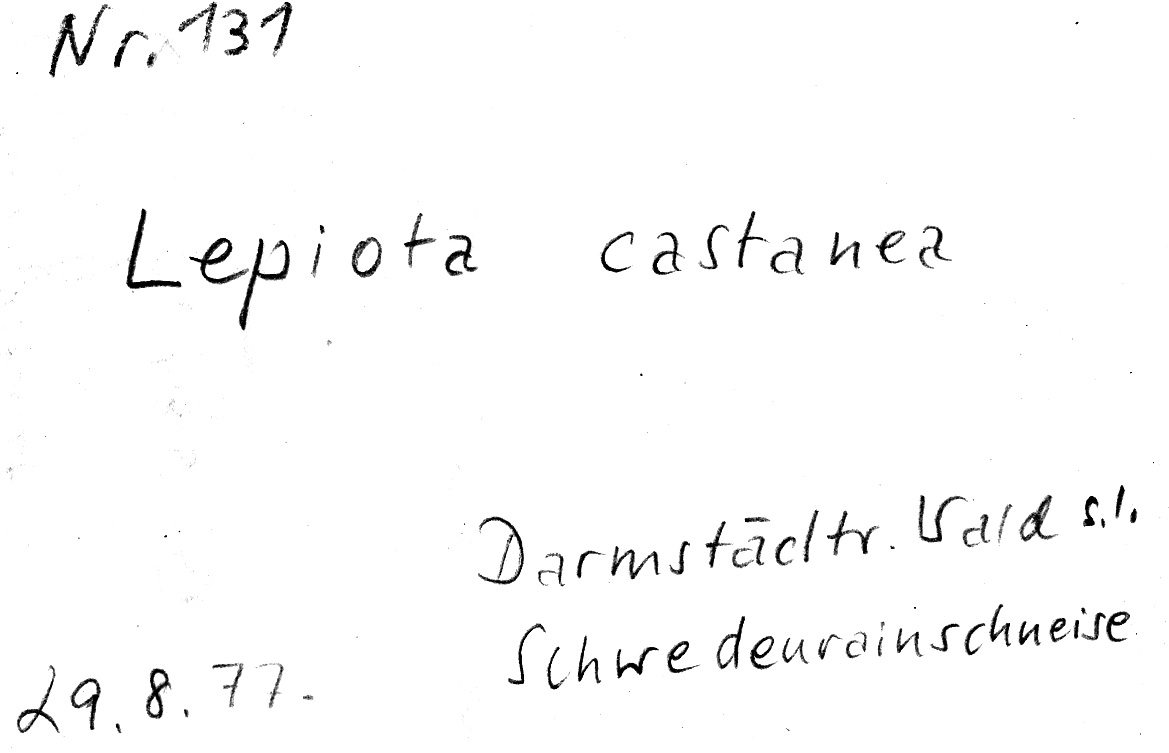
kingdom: Fungi
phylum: Basidiomycota
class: Agaricomycetes
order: Agaricales
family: Agaricaceae
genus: Lepiota
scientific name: Lepiota castanea
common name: Chestnut dapperling
